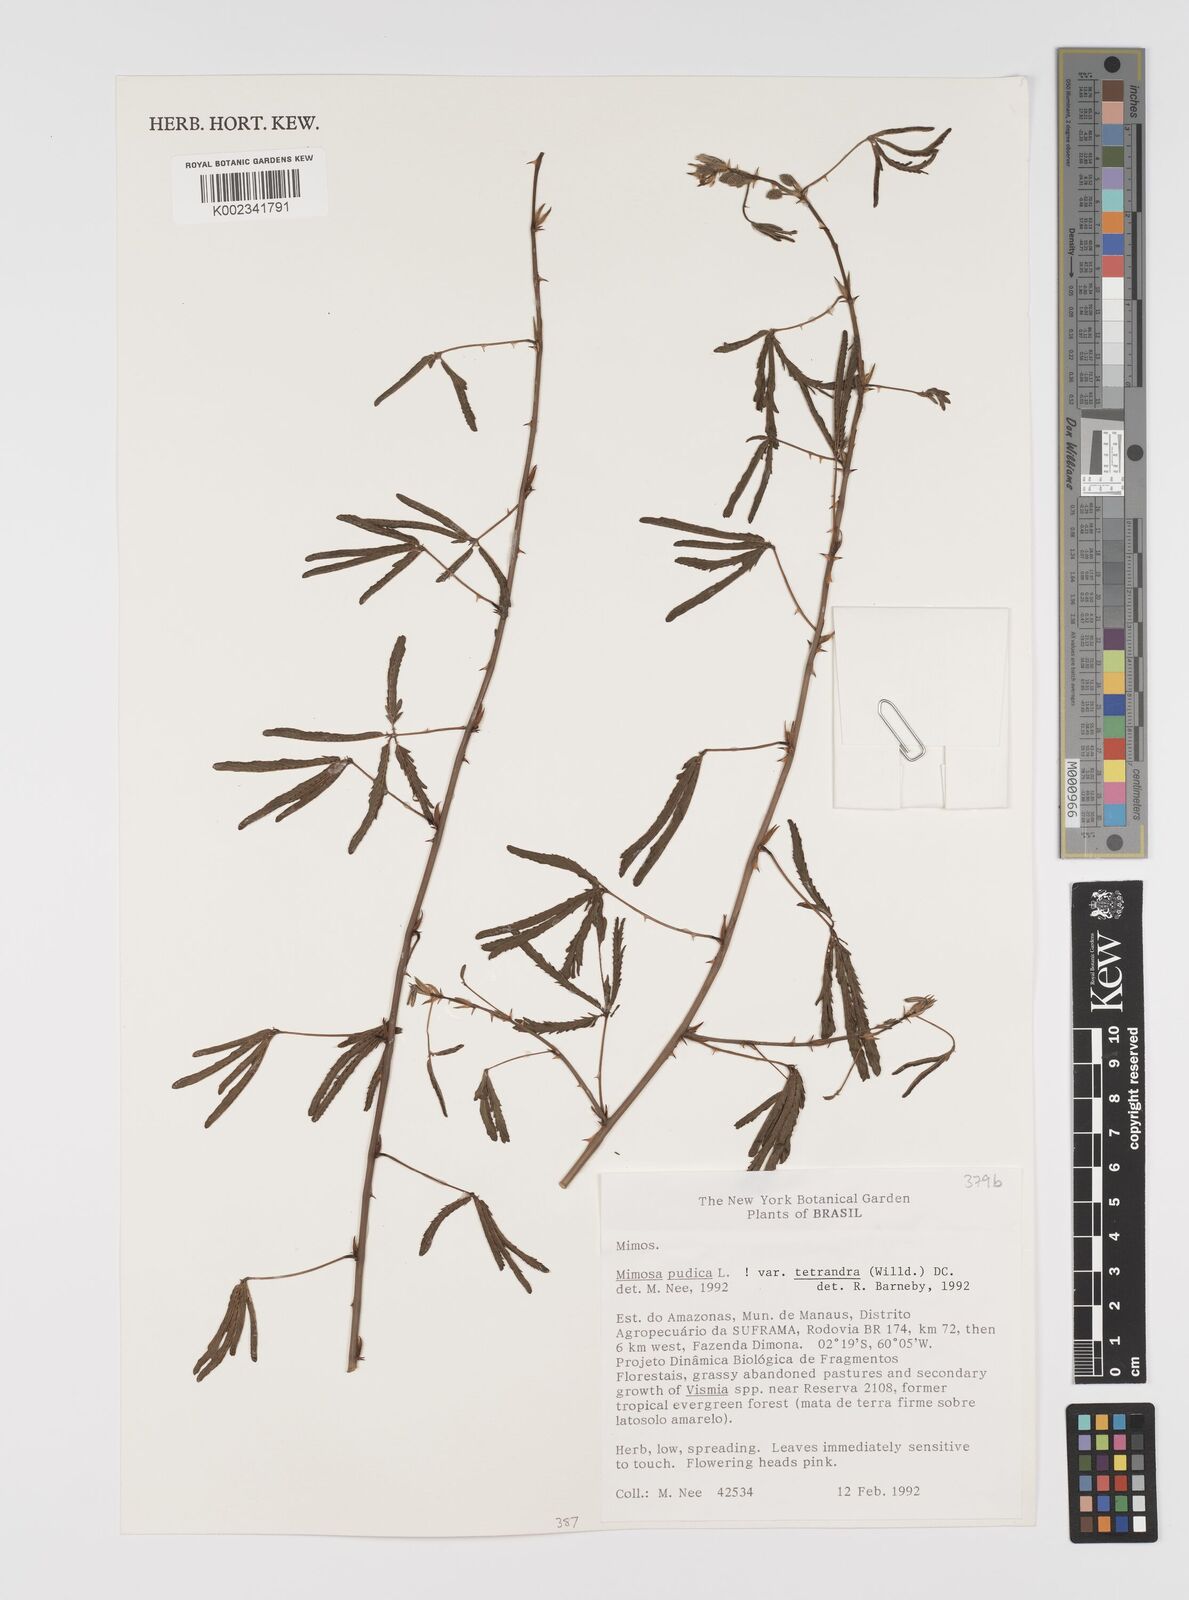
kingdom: Plantae
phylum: Tracheophyta
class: Magnoliopsida
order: Fabales
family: Fabaceae
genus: Mimosa
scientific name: Mimosa pudica
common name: Sensitive plant
